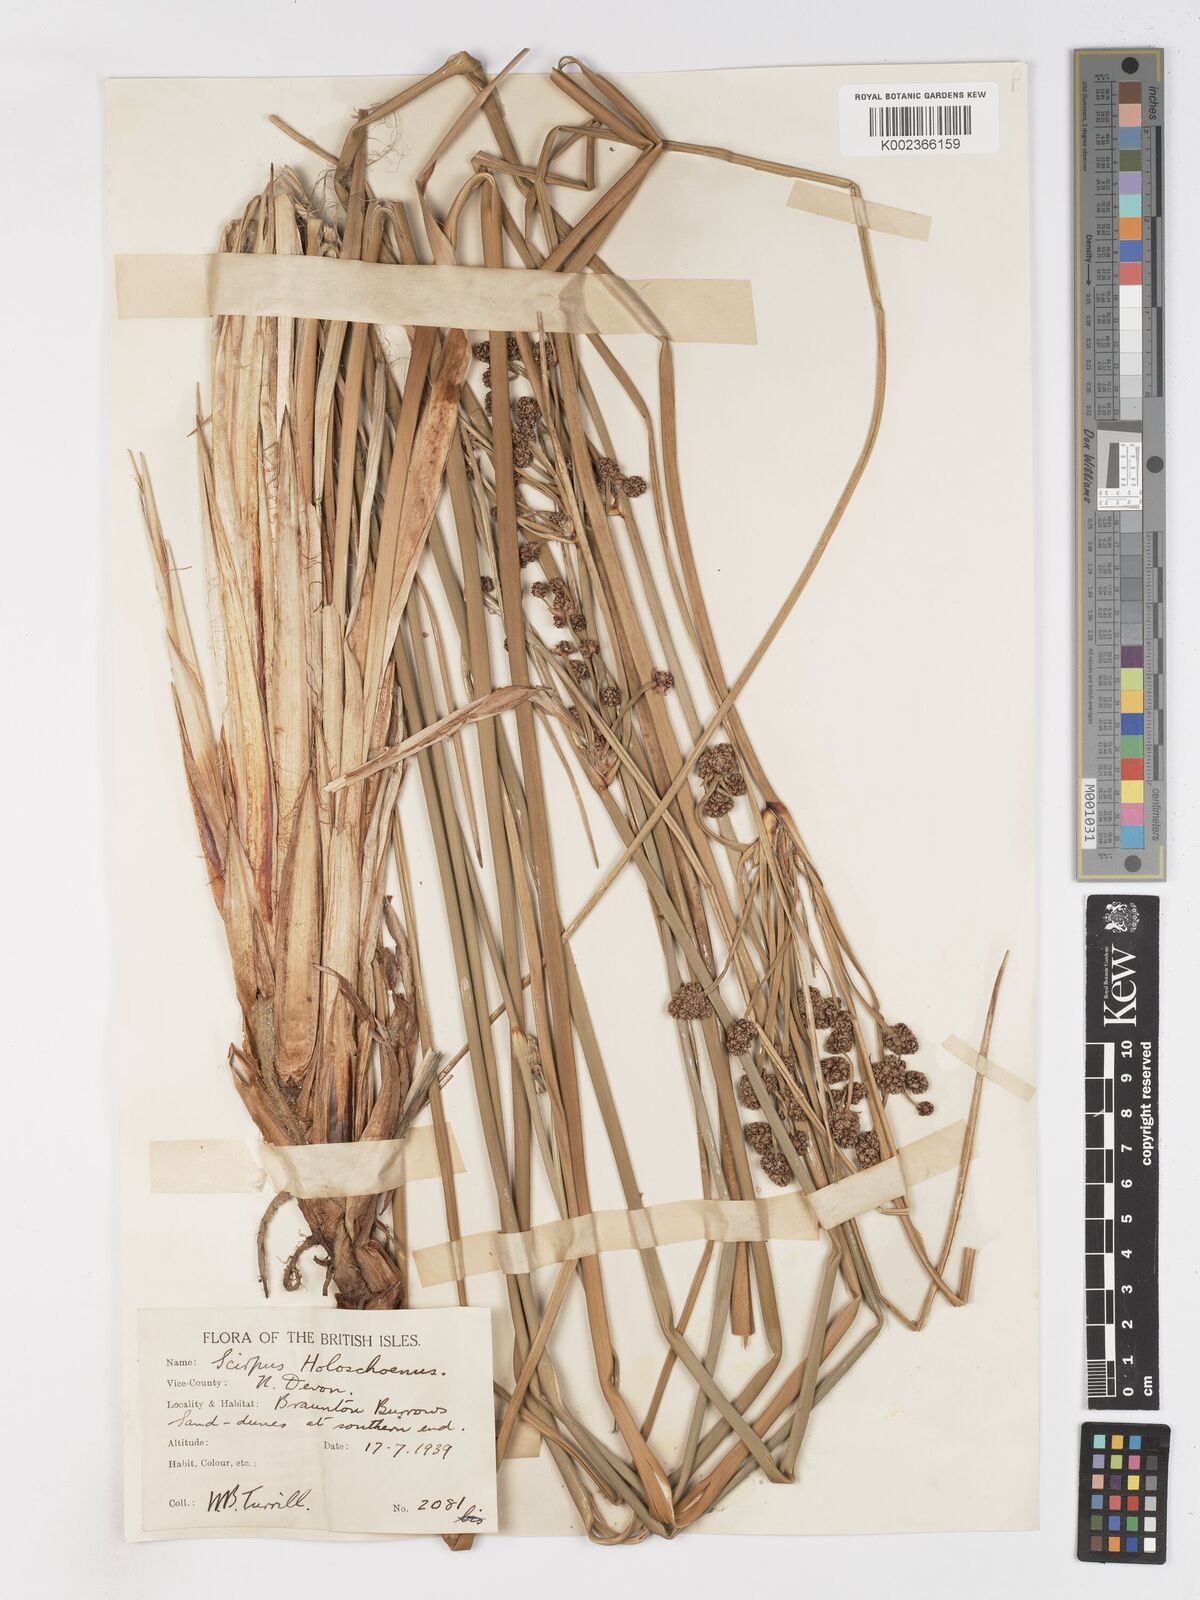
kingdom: Plantae
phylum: Tracheophyta
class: Liliopsida
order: Poales
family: Cyperaceae
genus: Scirpoides
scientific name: Scirpoides holoschoenus
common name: Round-headed club-rush
